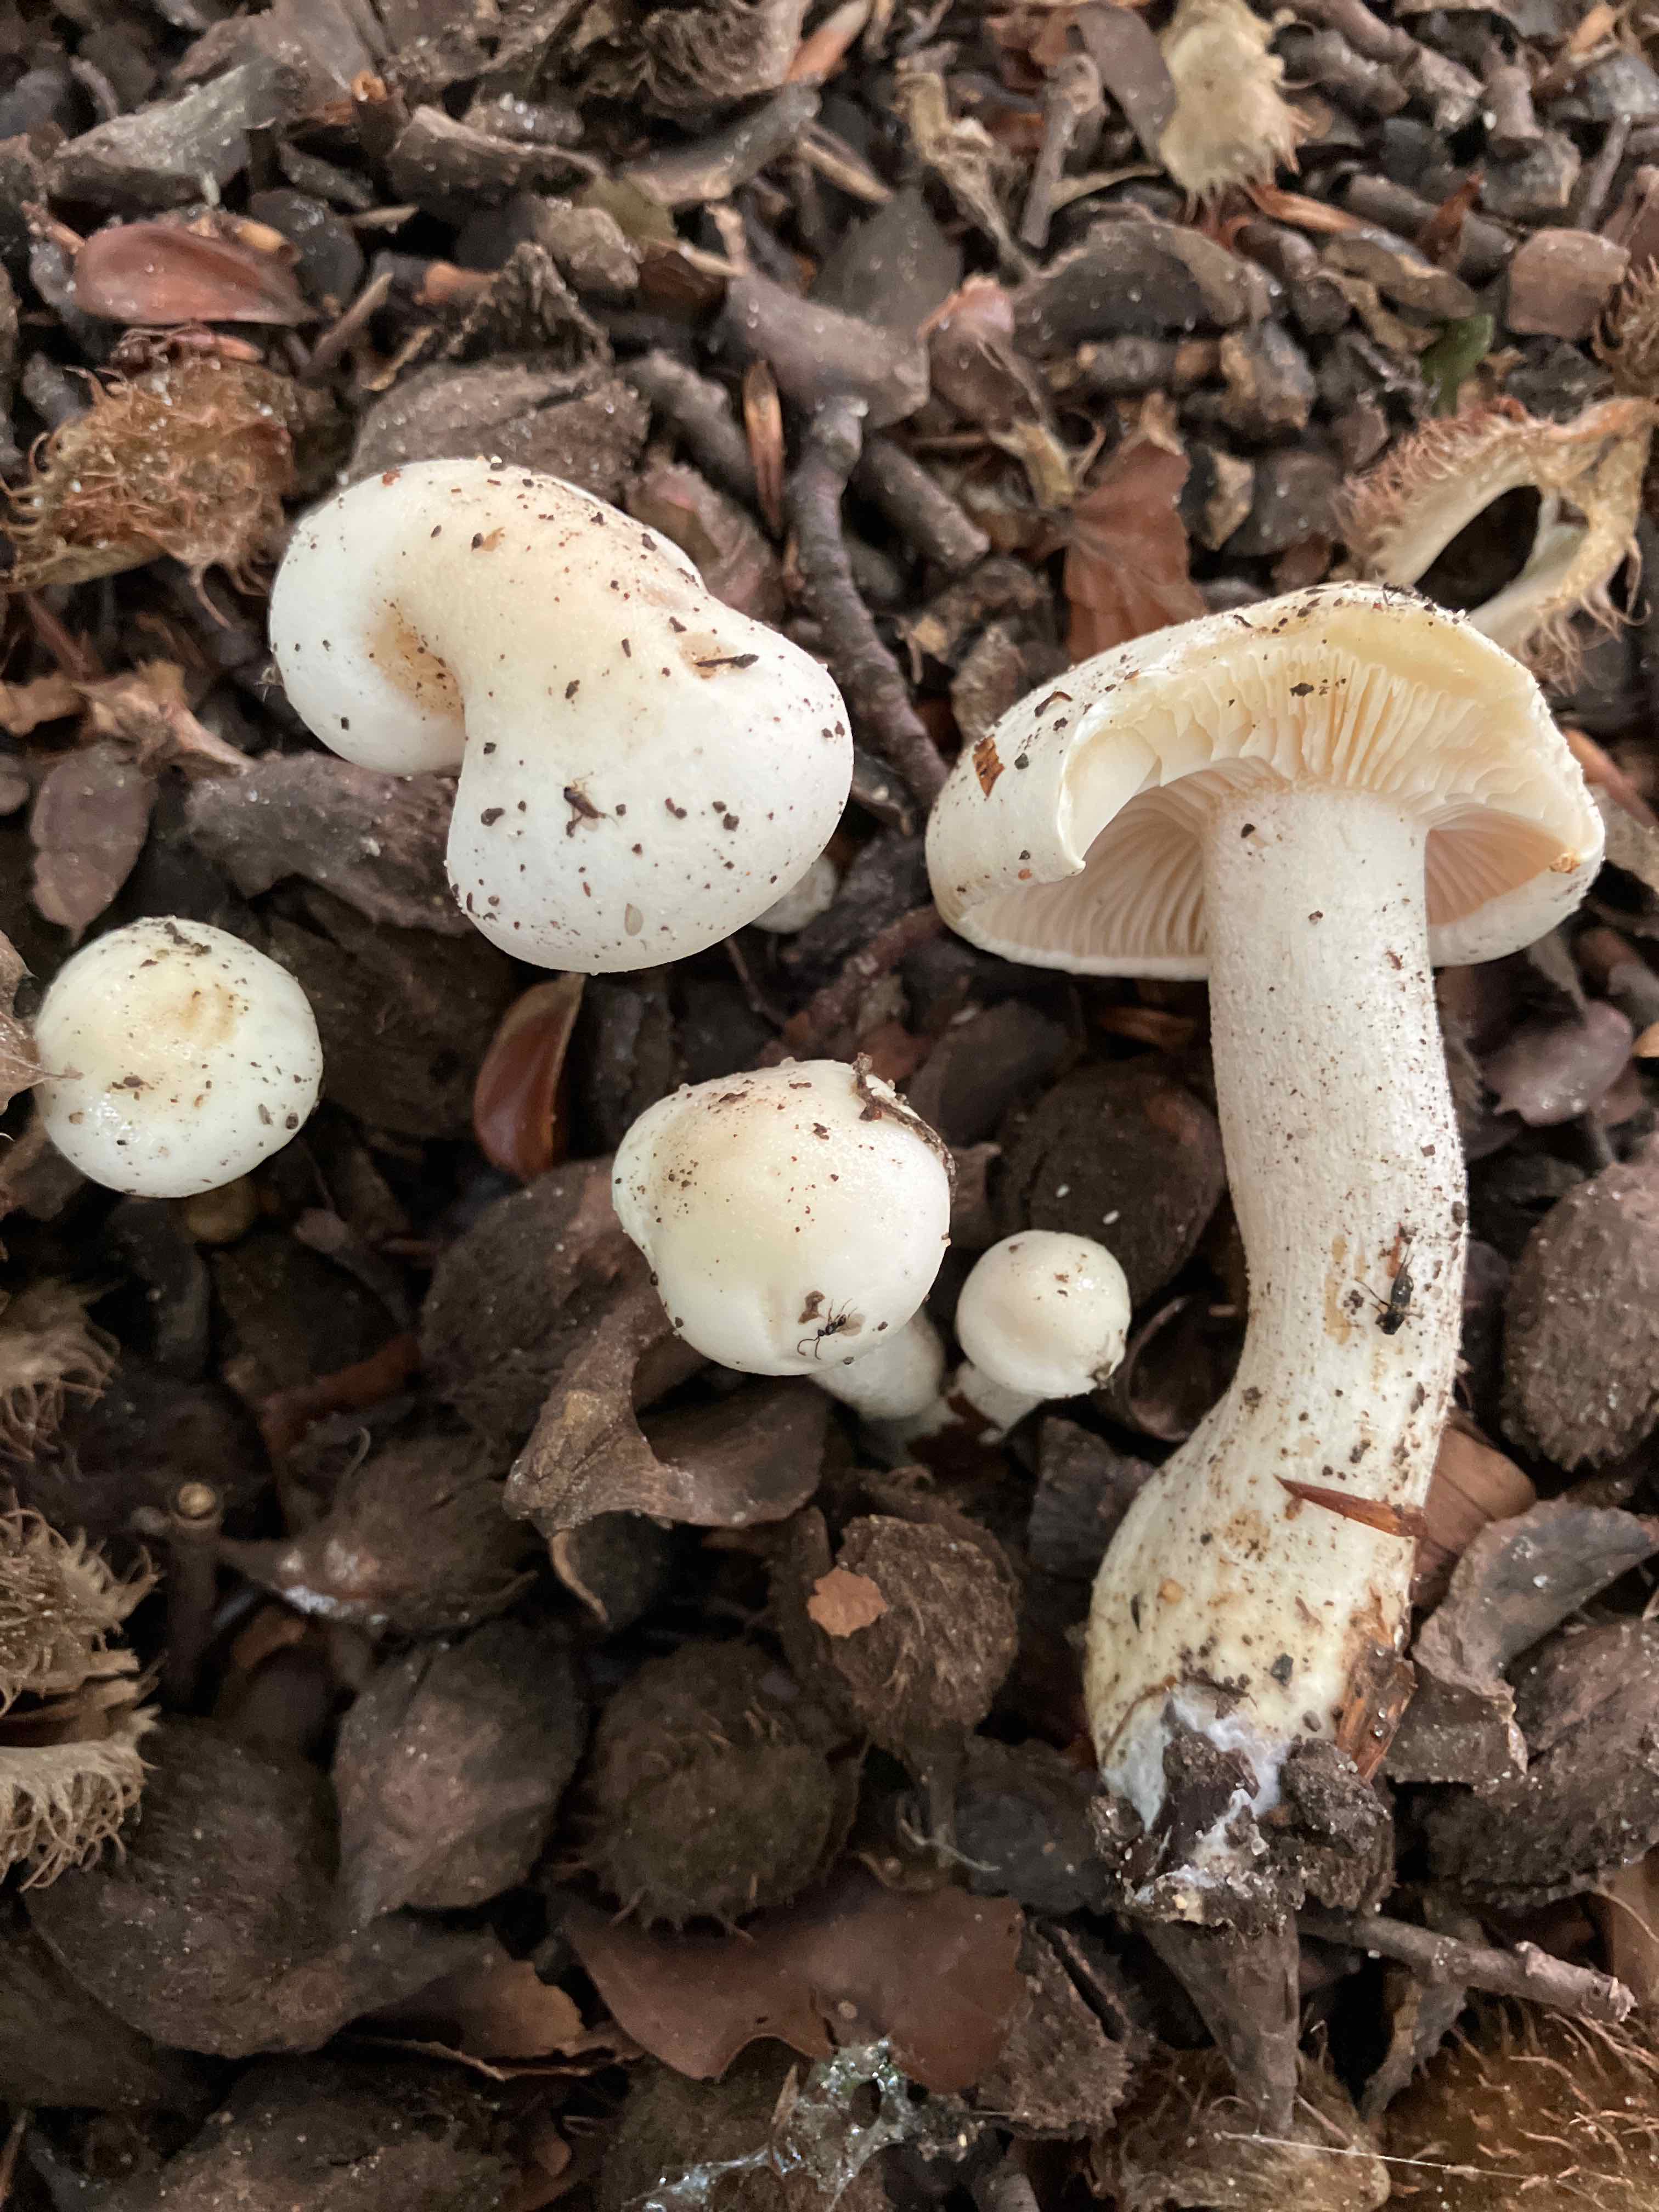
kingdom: Fungi
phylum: Basidiomycota
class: Agaricomycetes
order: Agaricales
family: Hygrophoraceae
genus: Hygrophorus
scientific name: Hygrophorus penarius
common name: spiselig sneglehat
